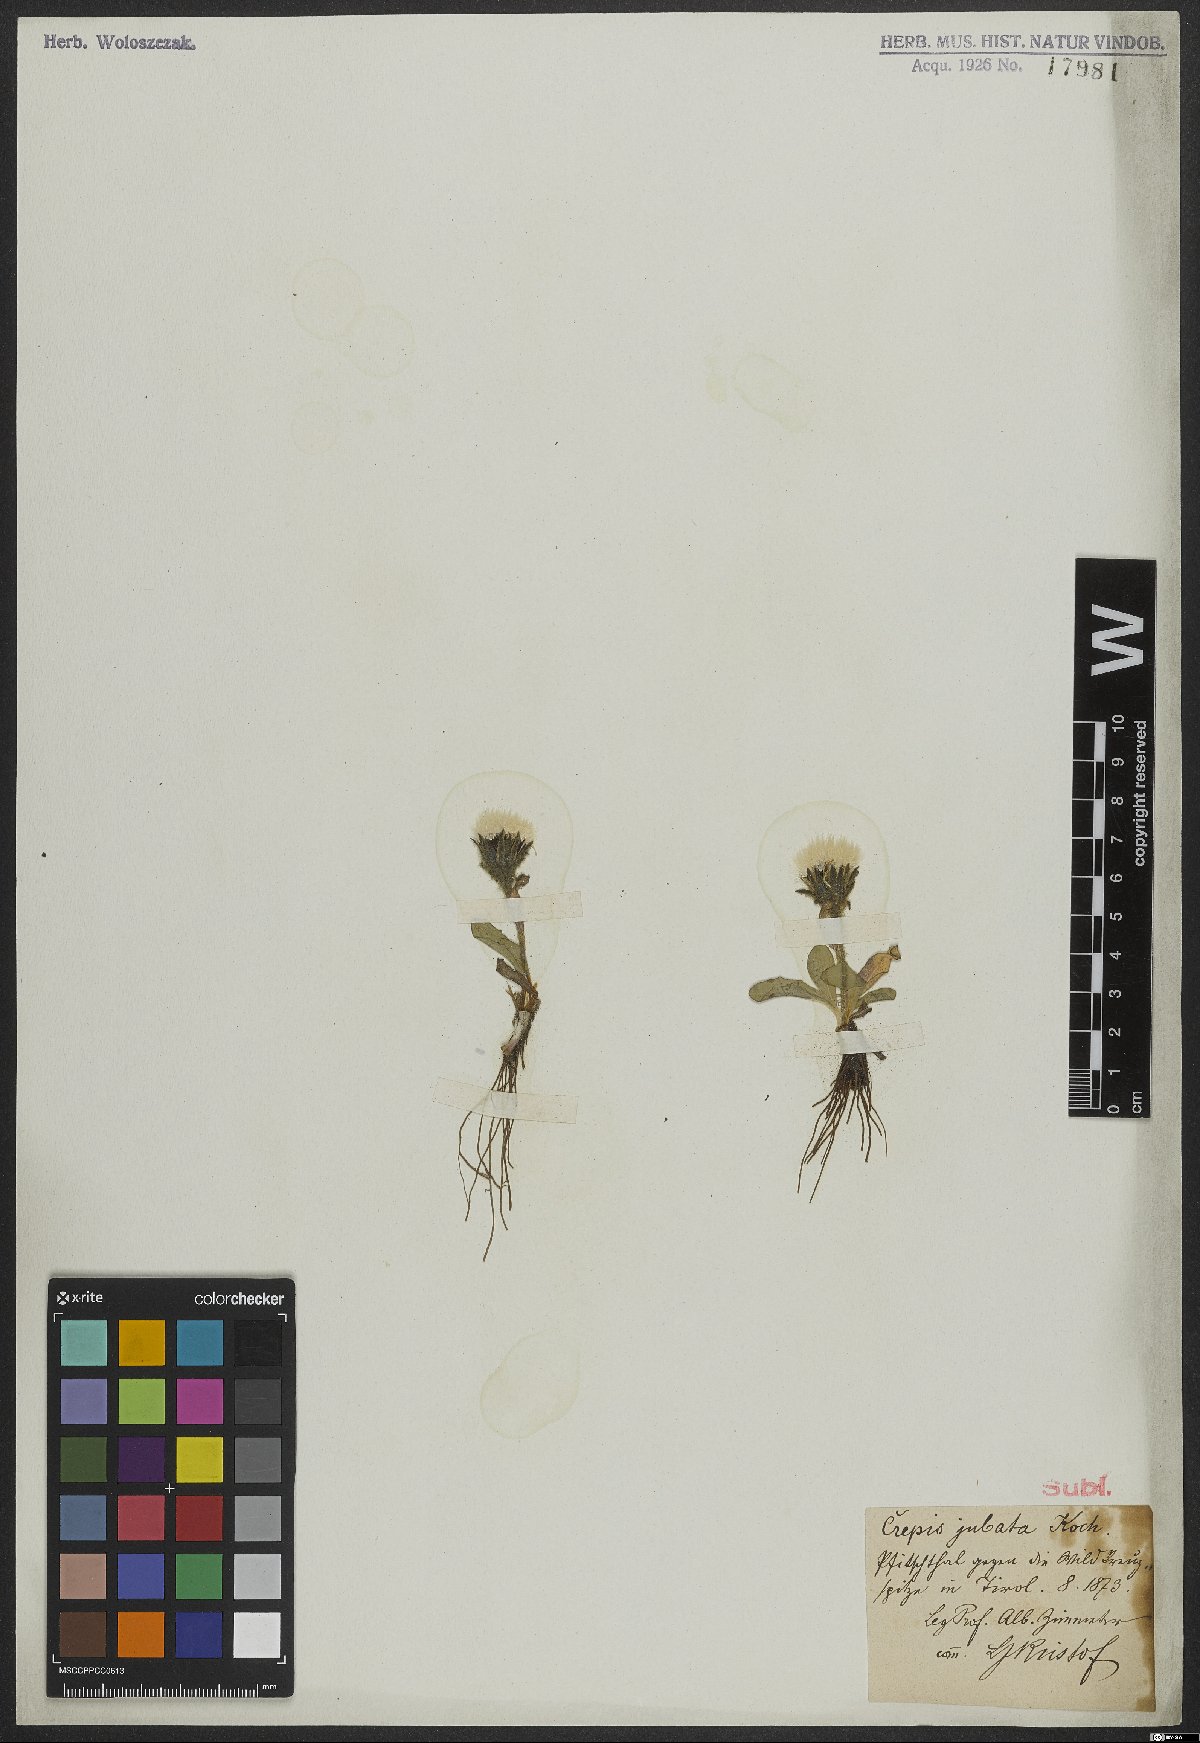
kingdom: Plantae
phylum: Tracheophyta
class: Magnoliopsida
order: Asterales
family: Asteraceae
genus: Crepis
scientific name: Crepis rhaetica
